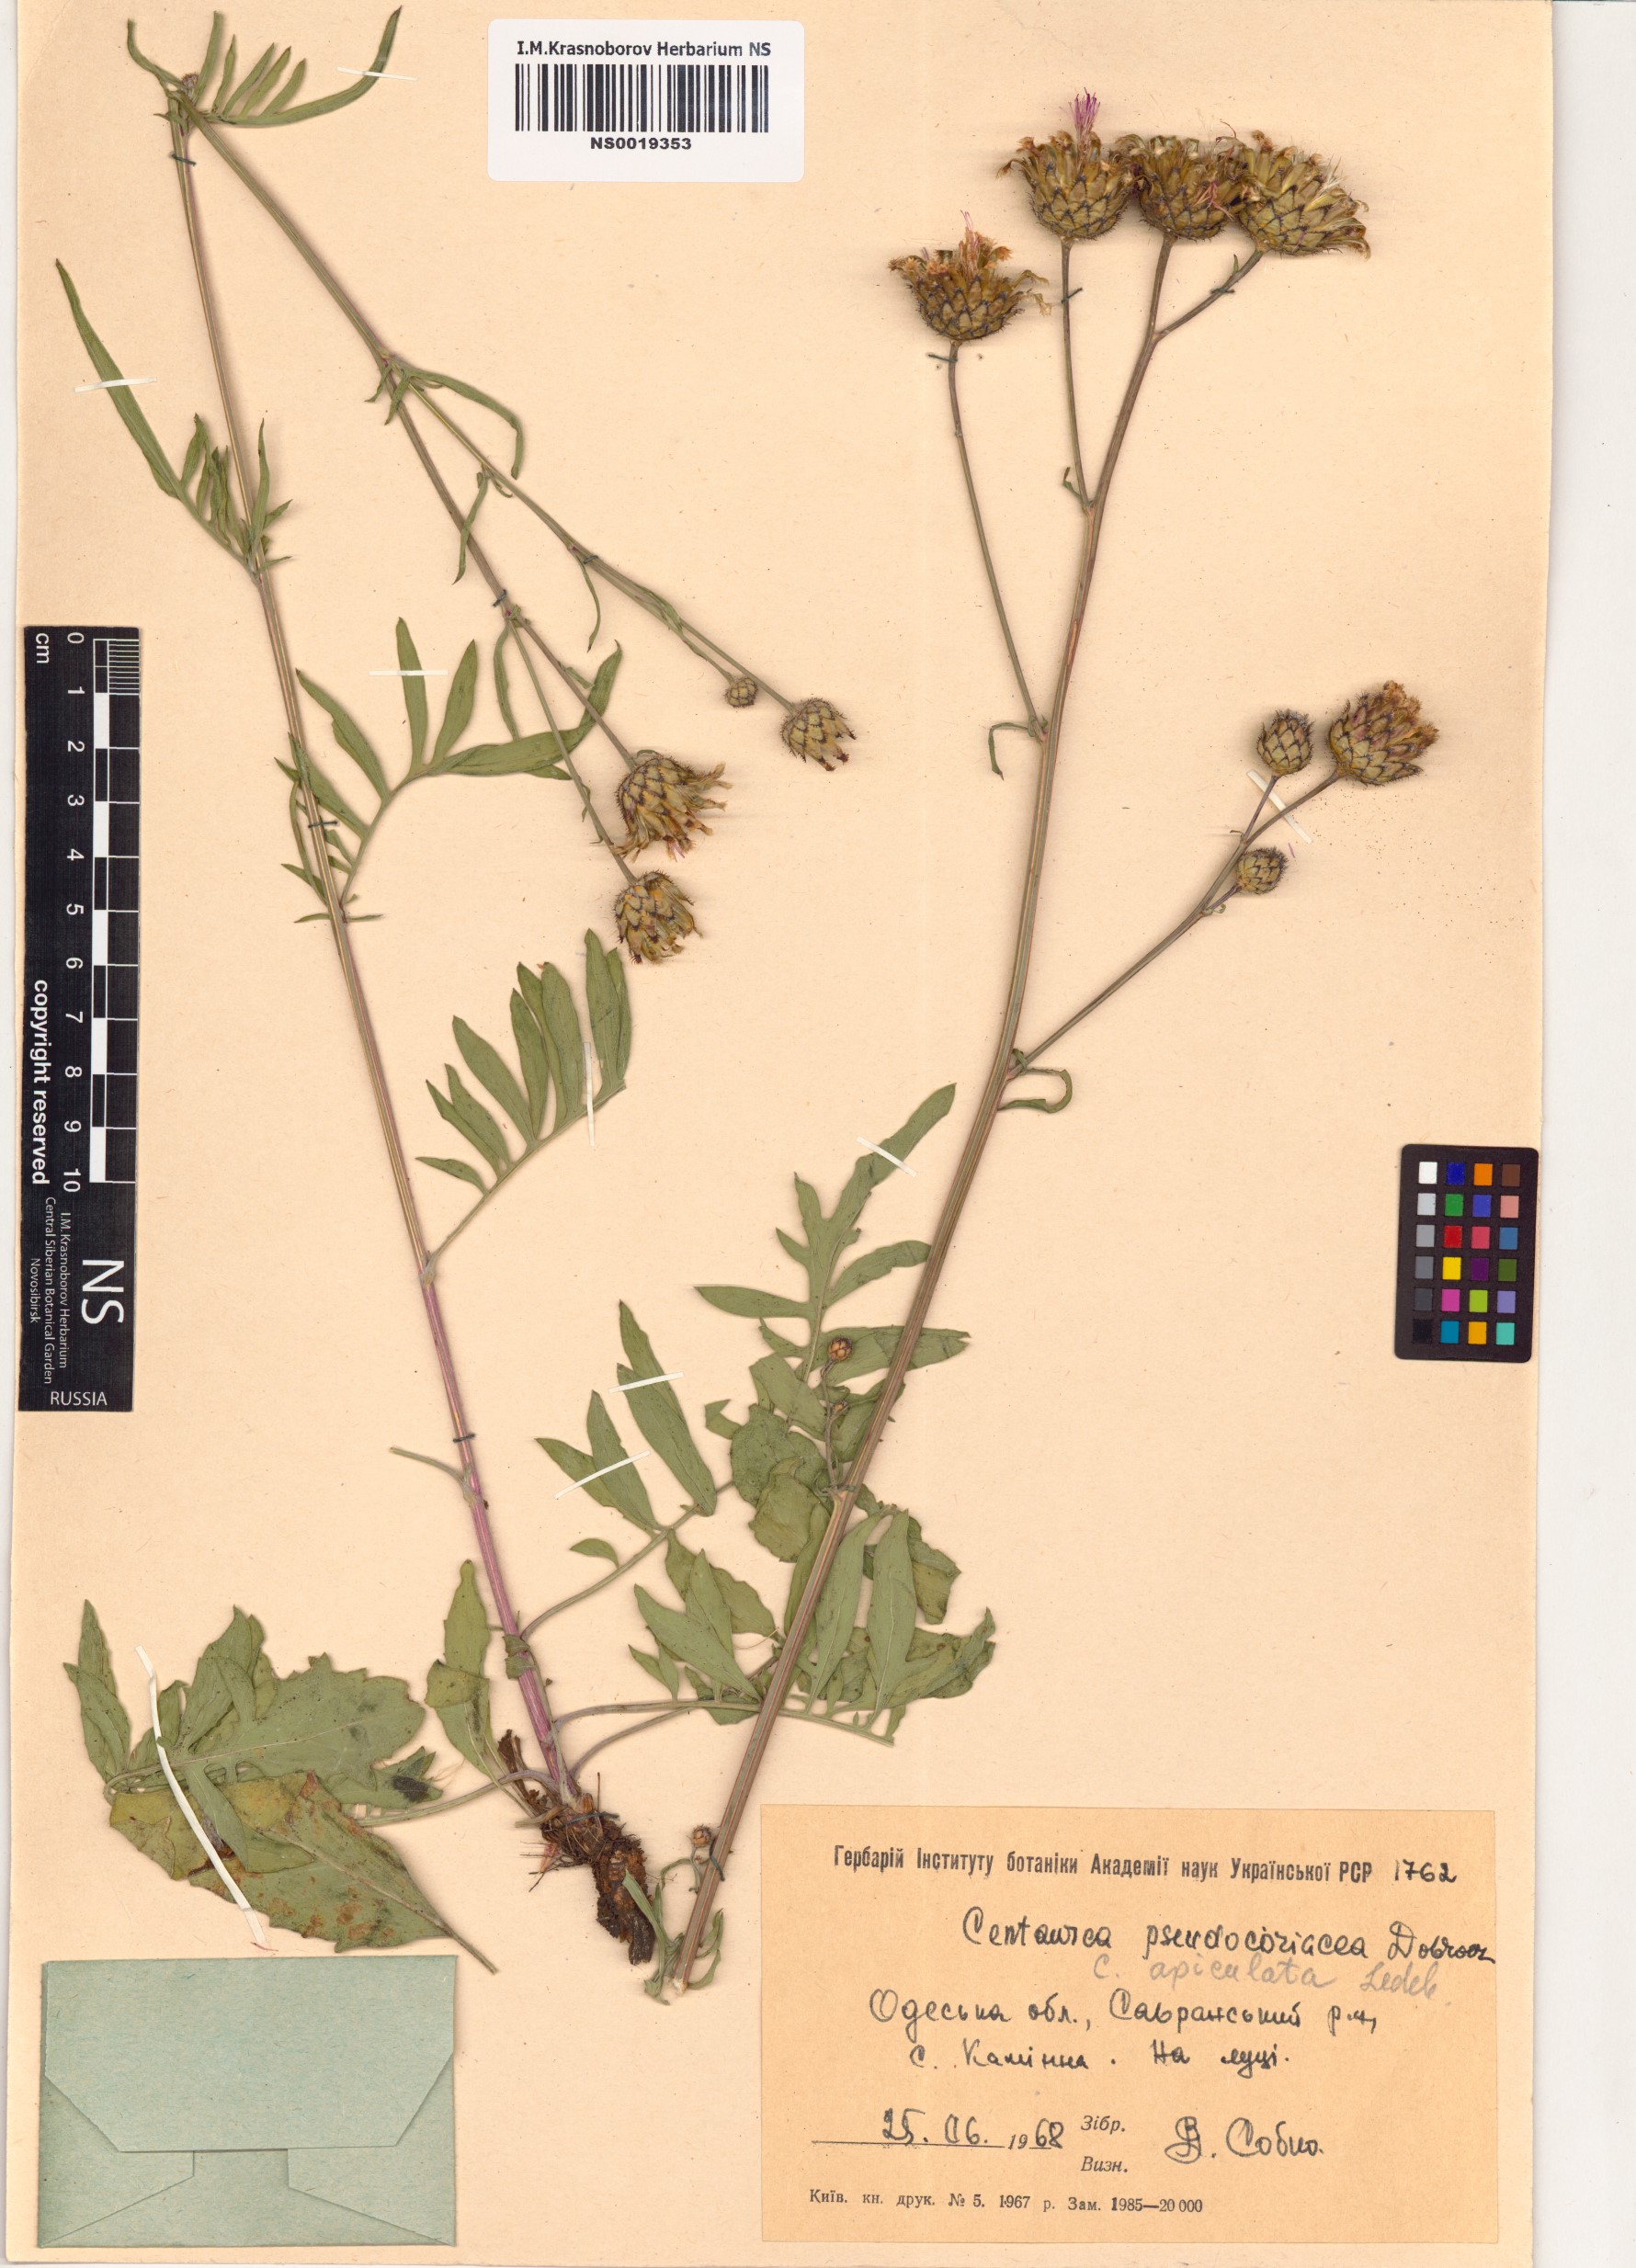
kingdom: Plantae
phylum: Tracheophyta
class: Magnoliopsida
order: Asterales
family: Asteraceae
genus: Centaurea
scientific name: Centaurea apiculata
